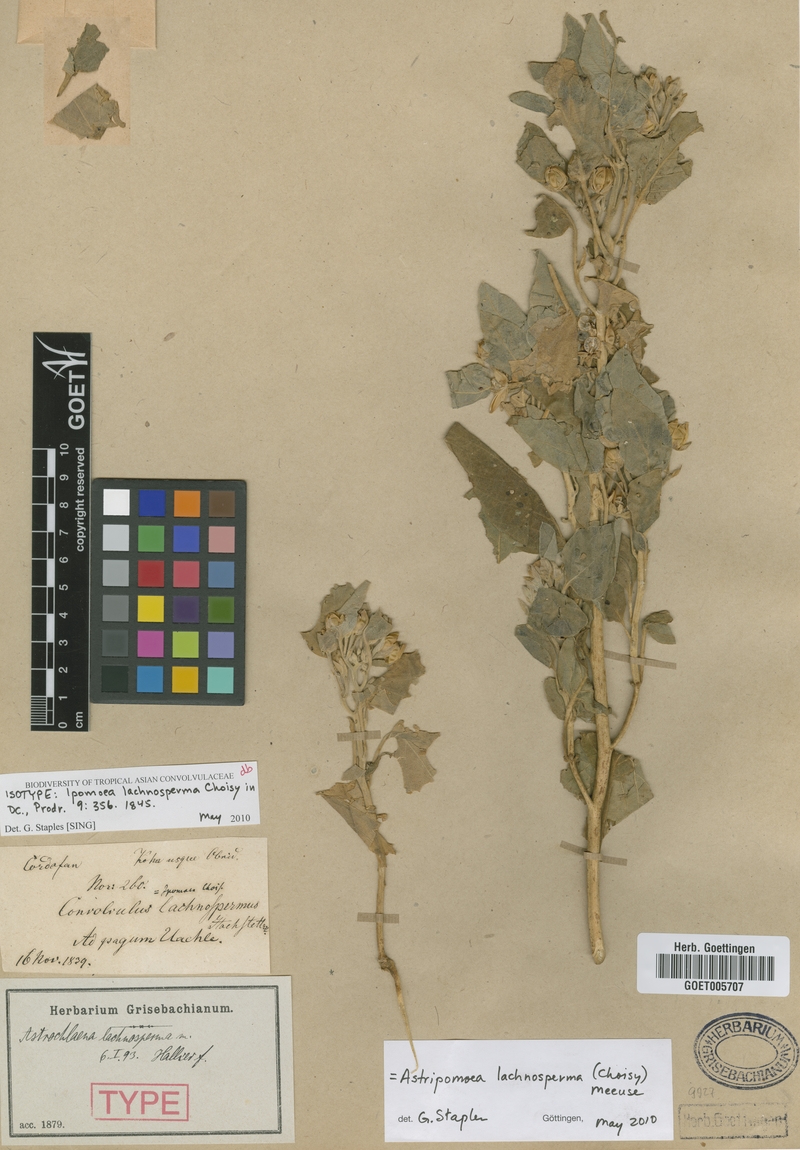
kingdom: Plantae
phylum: Tracheophyta
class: Magnoliopsida
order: Solanales
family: Convolvulaceae
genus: Astripomoea
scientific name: Astripomoea lachnosperma
